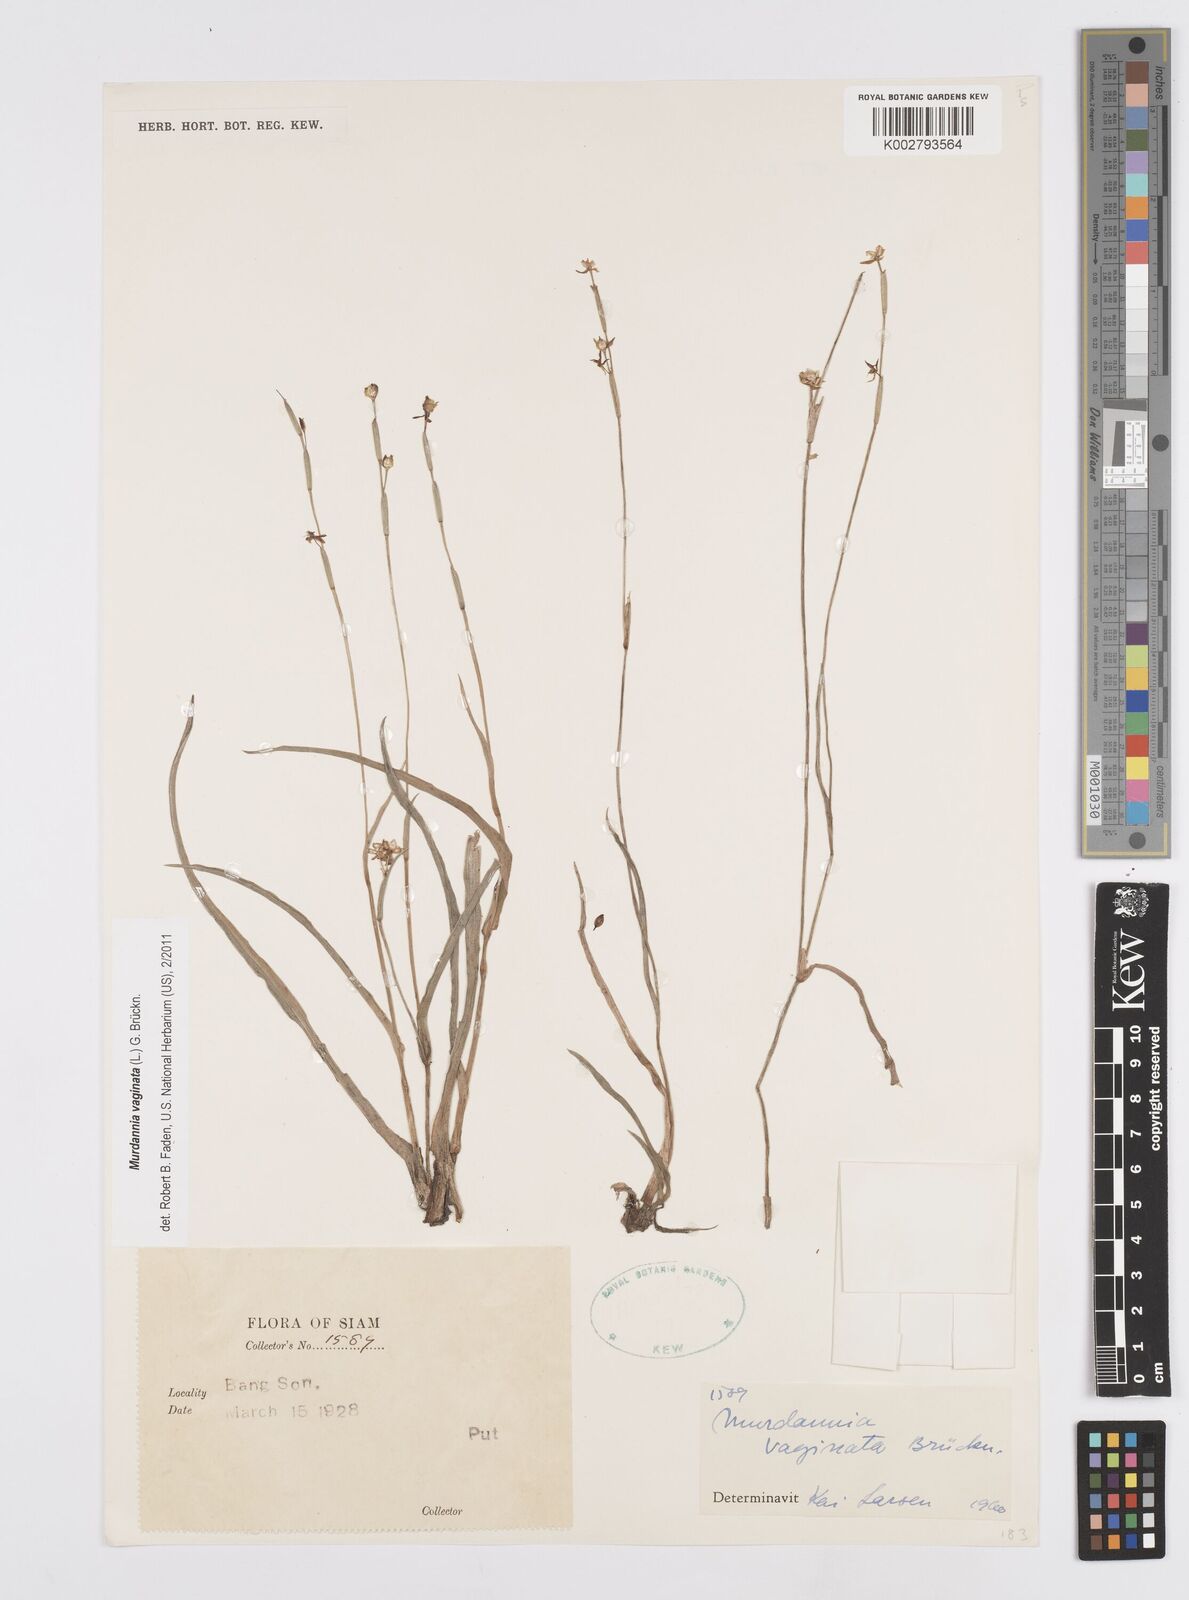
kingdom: Plantae
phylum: Tracheophyta
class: Liliopsida
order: Commelinales
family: Commelinaceae
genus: Murdannia
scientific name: Murdannia vaginata
